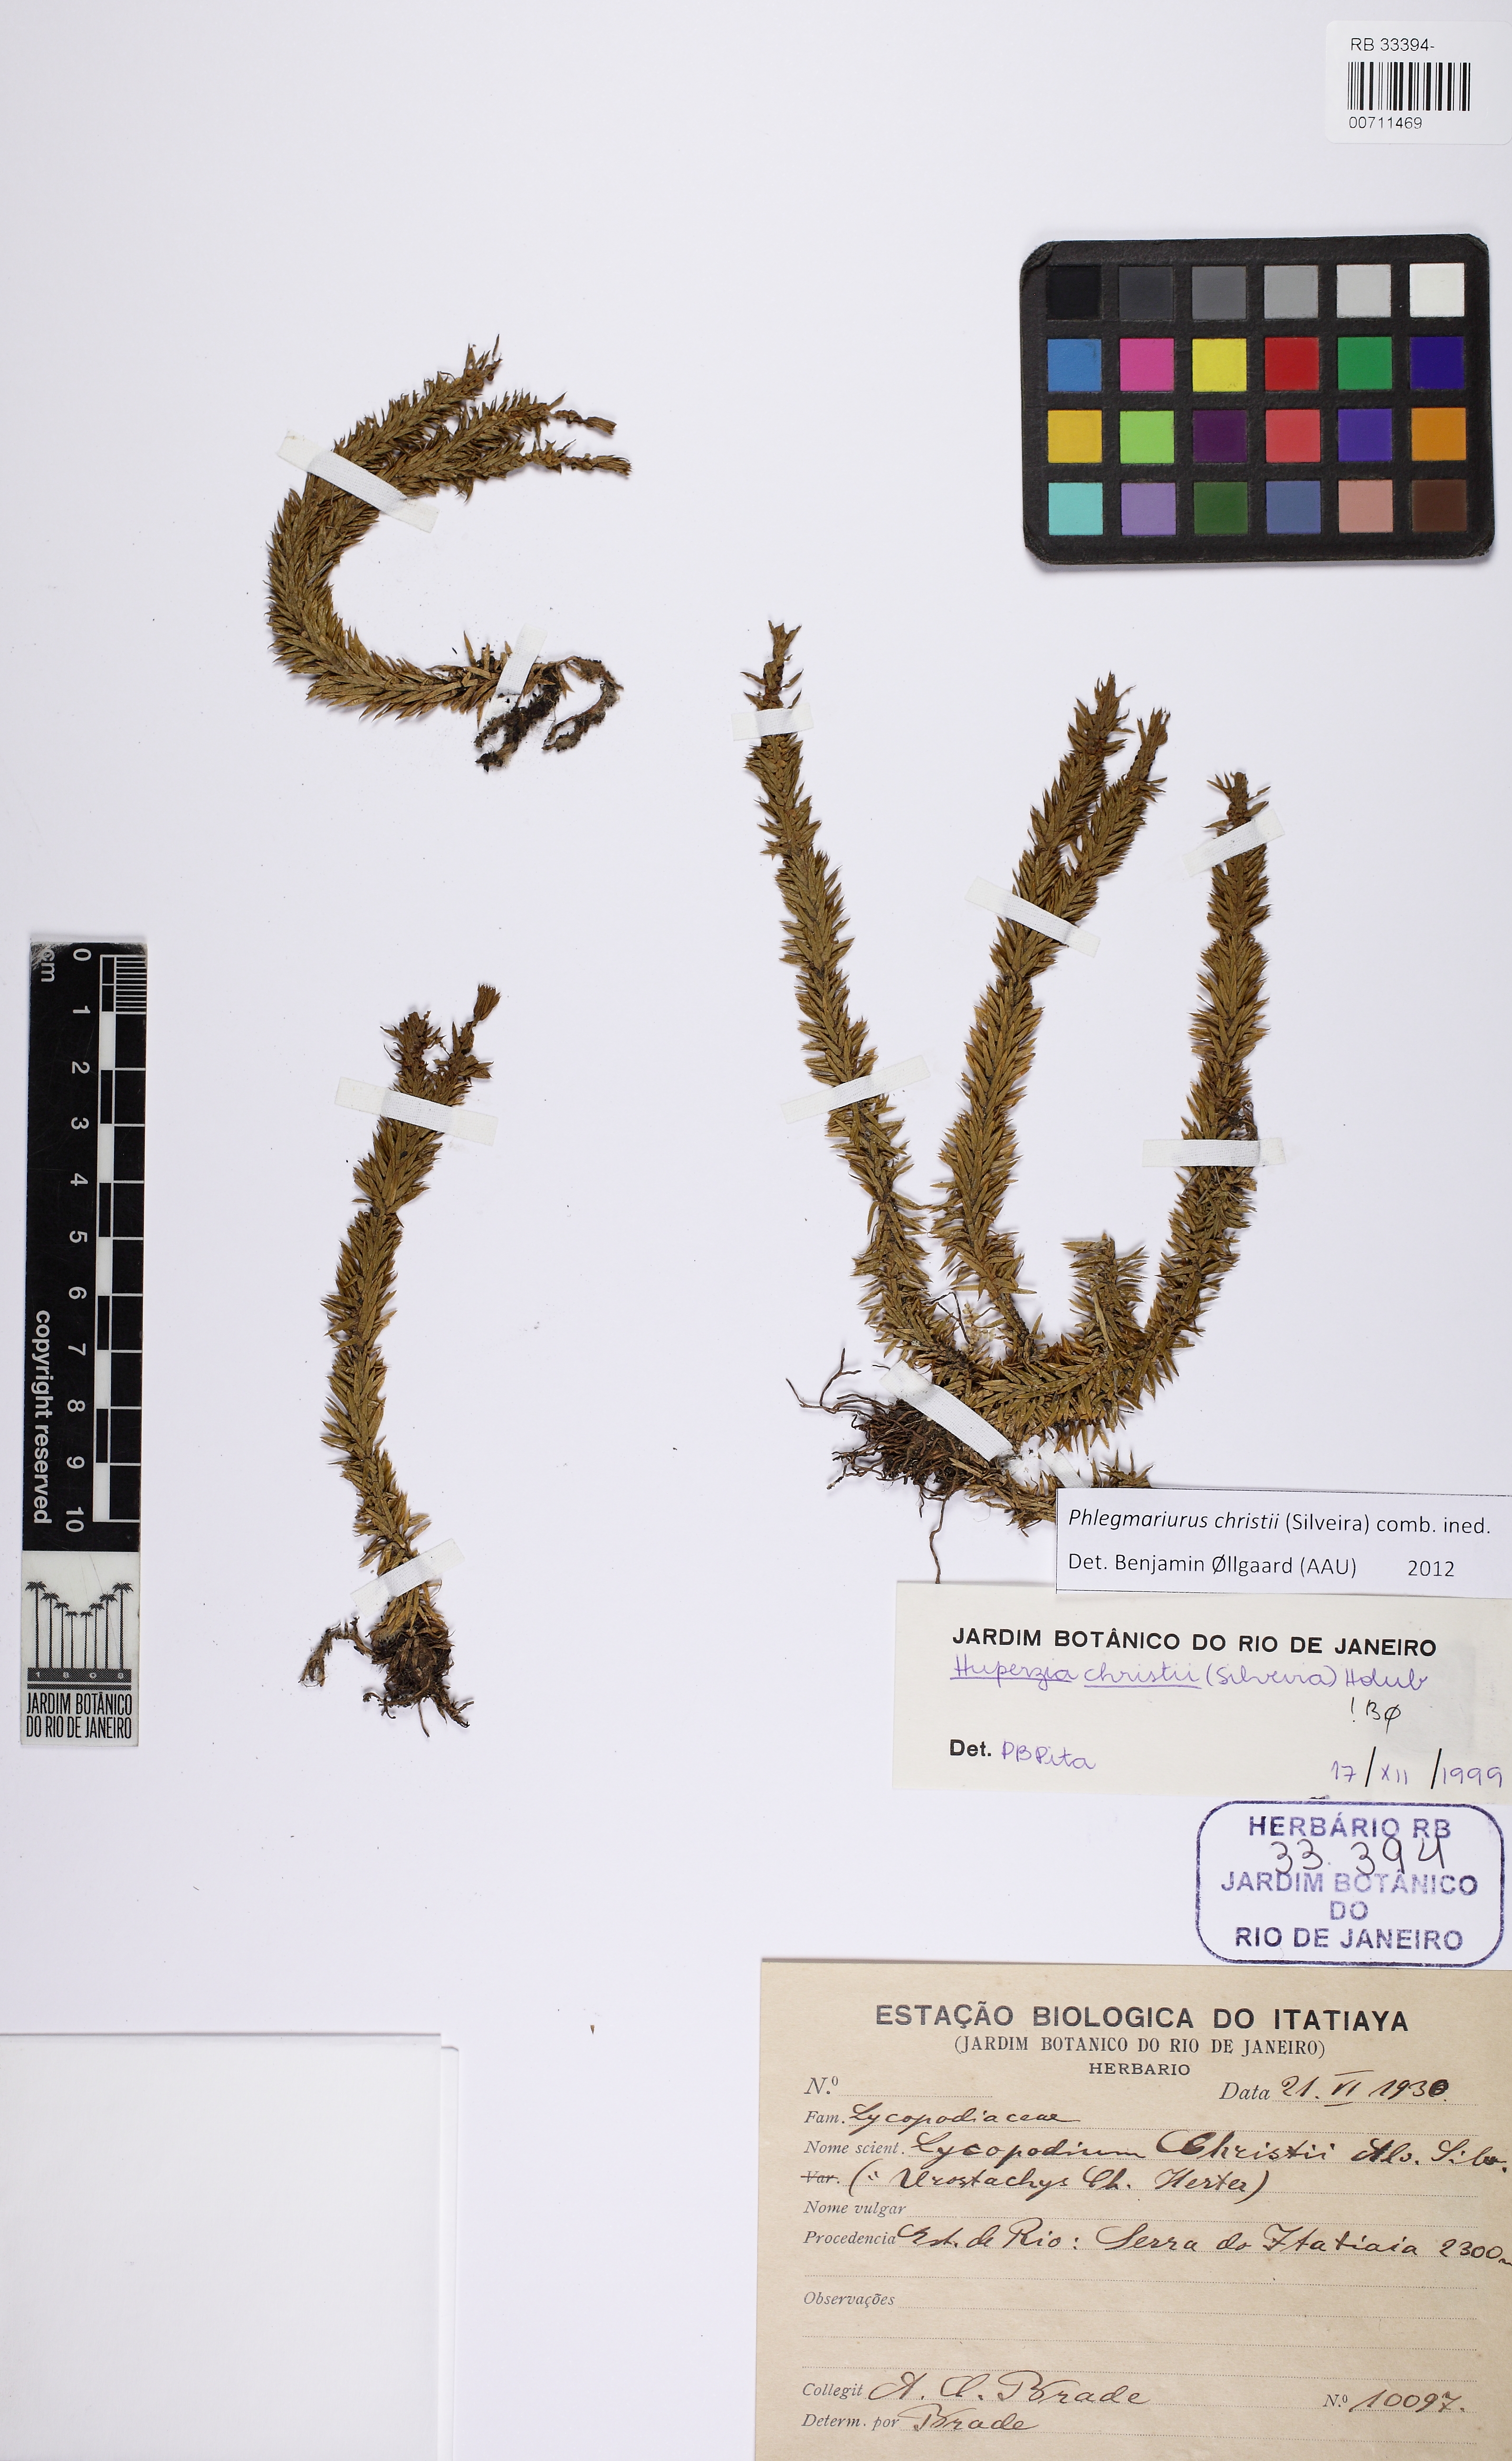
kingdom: Plantae
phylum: Tracheophyta
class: Lycopodiopsida
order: Lycopodiales
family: Lycopodiaceae
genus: Phlegmariurus
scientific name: Phlegmariurus christii
